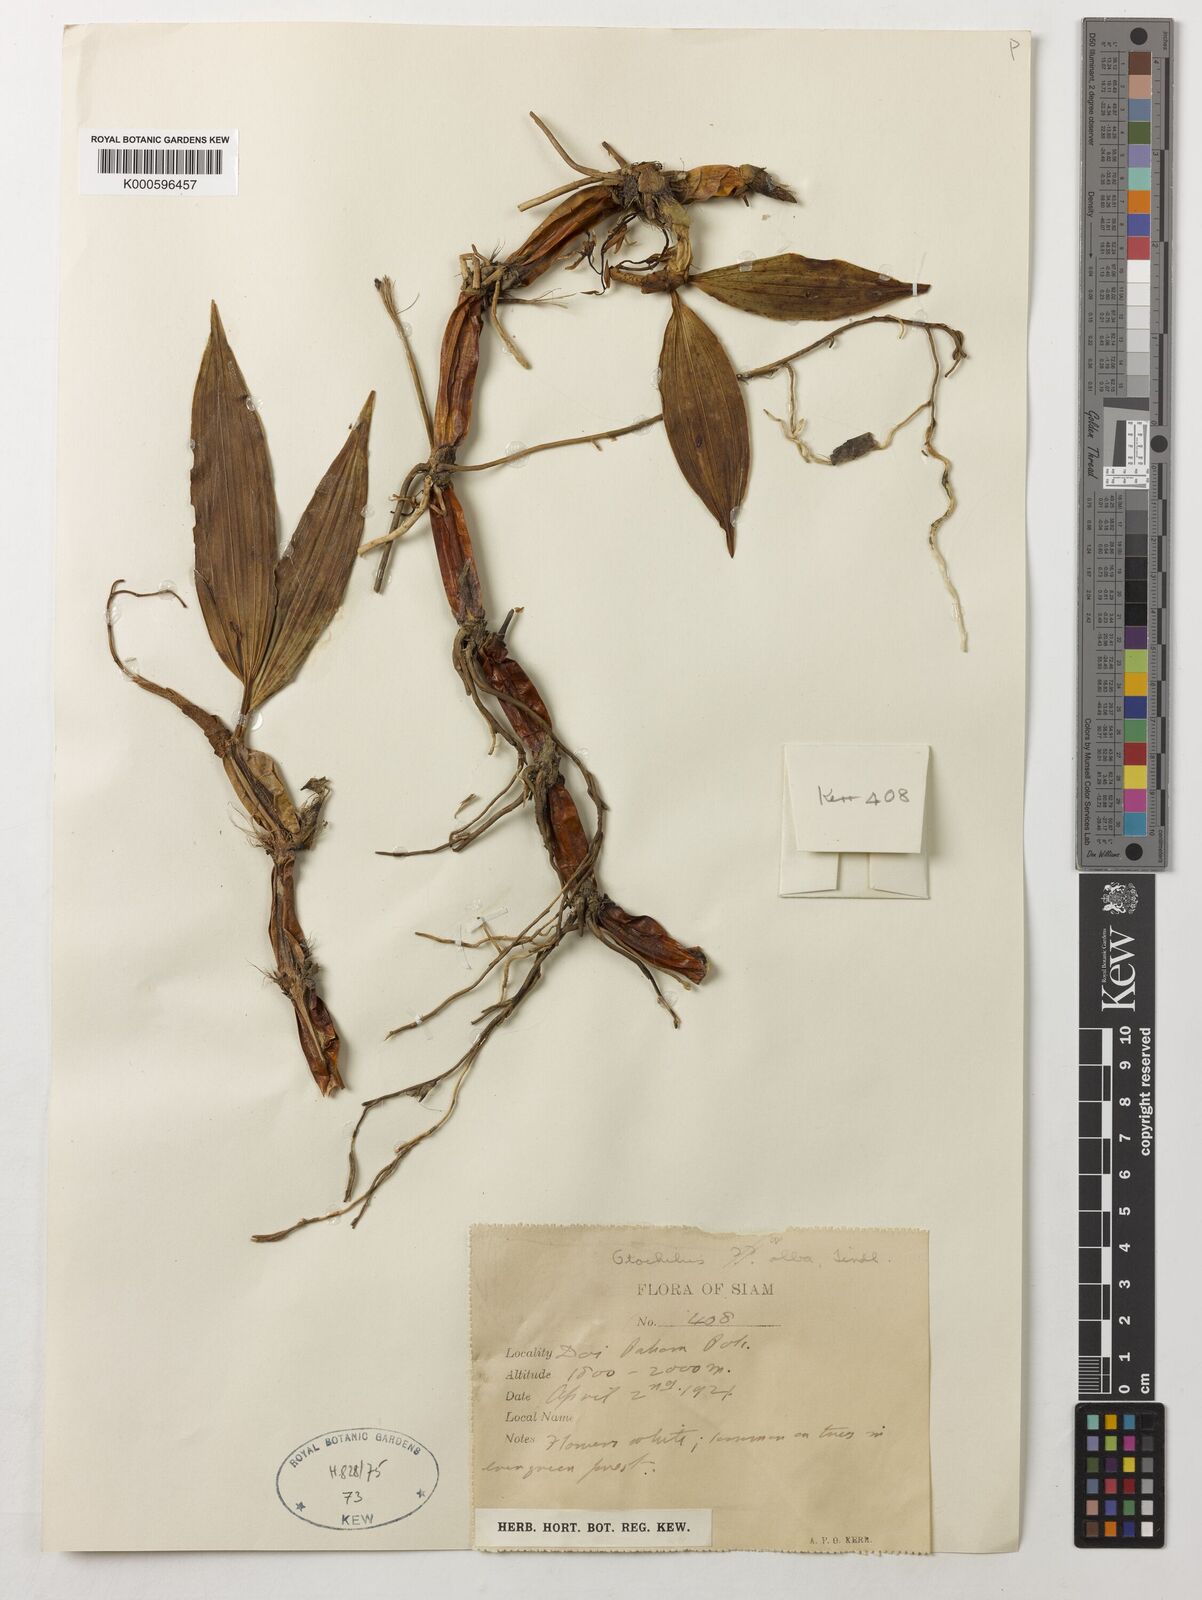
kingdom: Plantae
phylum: Tracheophyta
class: Liliopsida
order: Asparagales
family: Orchidaceae
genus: Coelogyne
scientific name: Coelogyne alba
